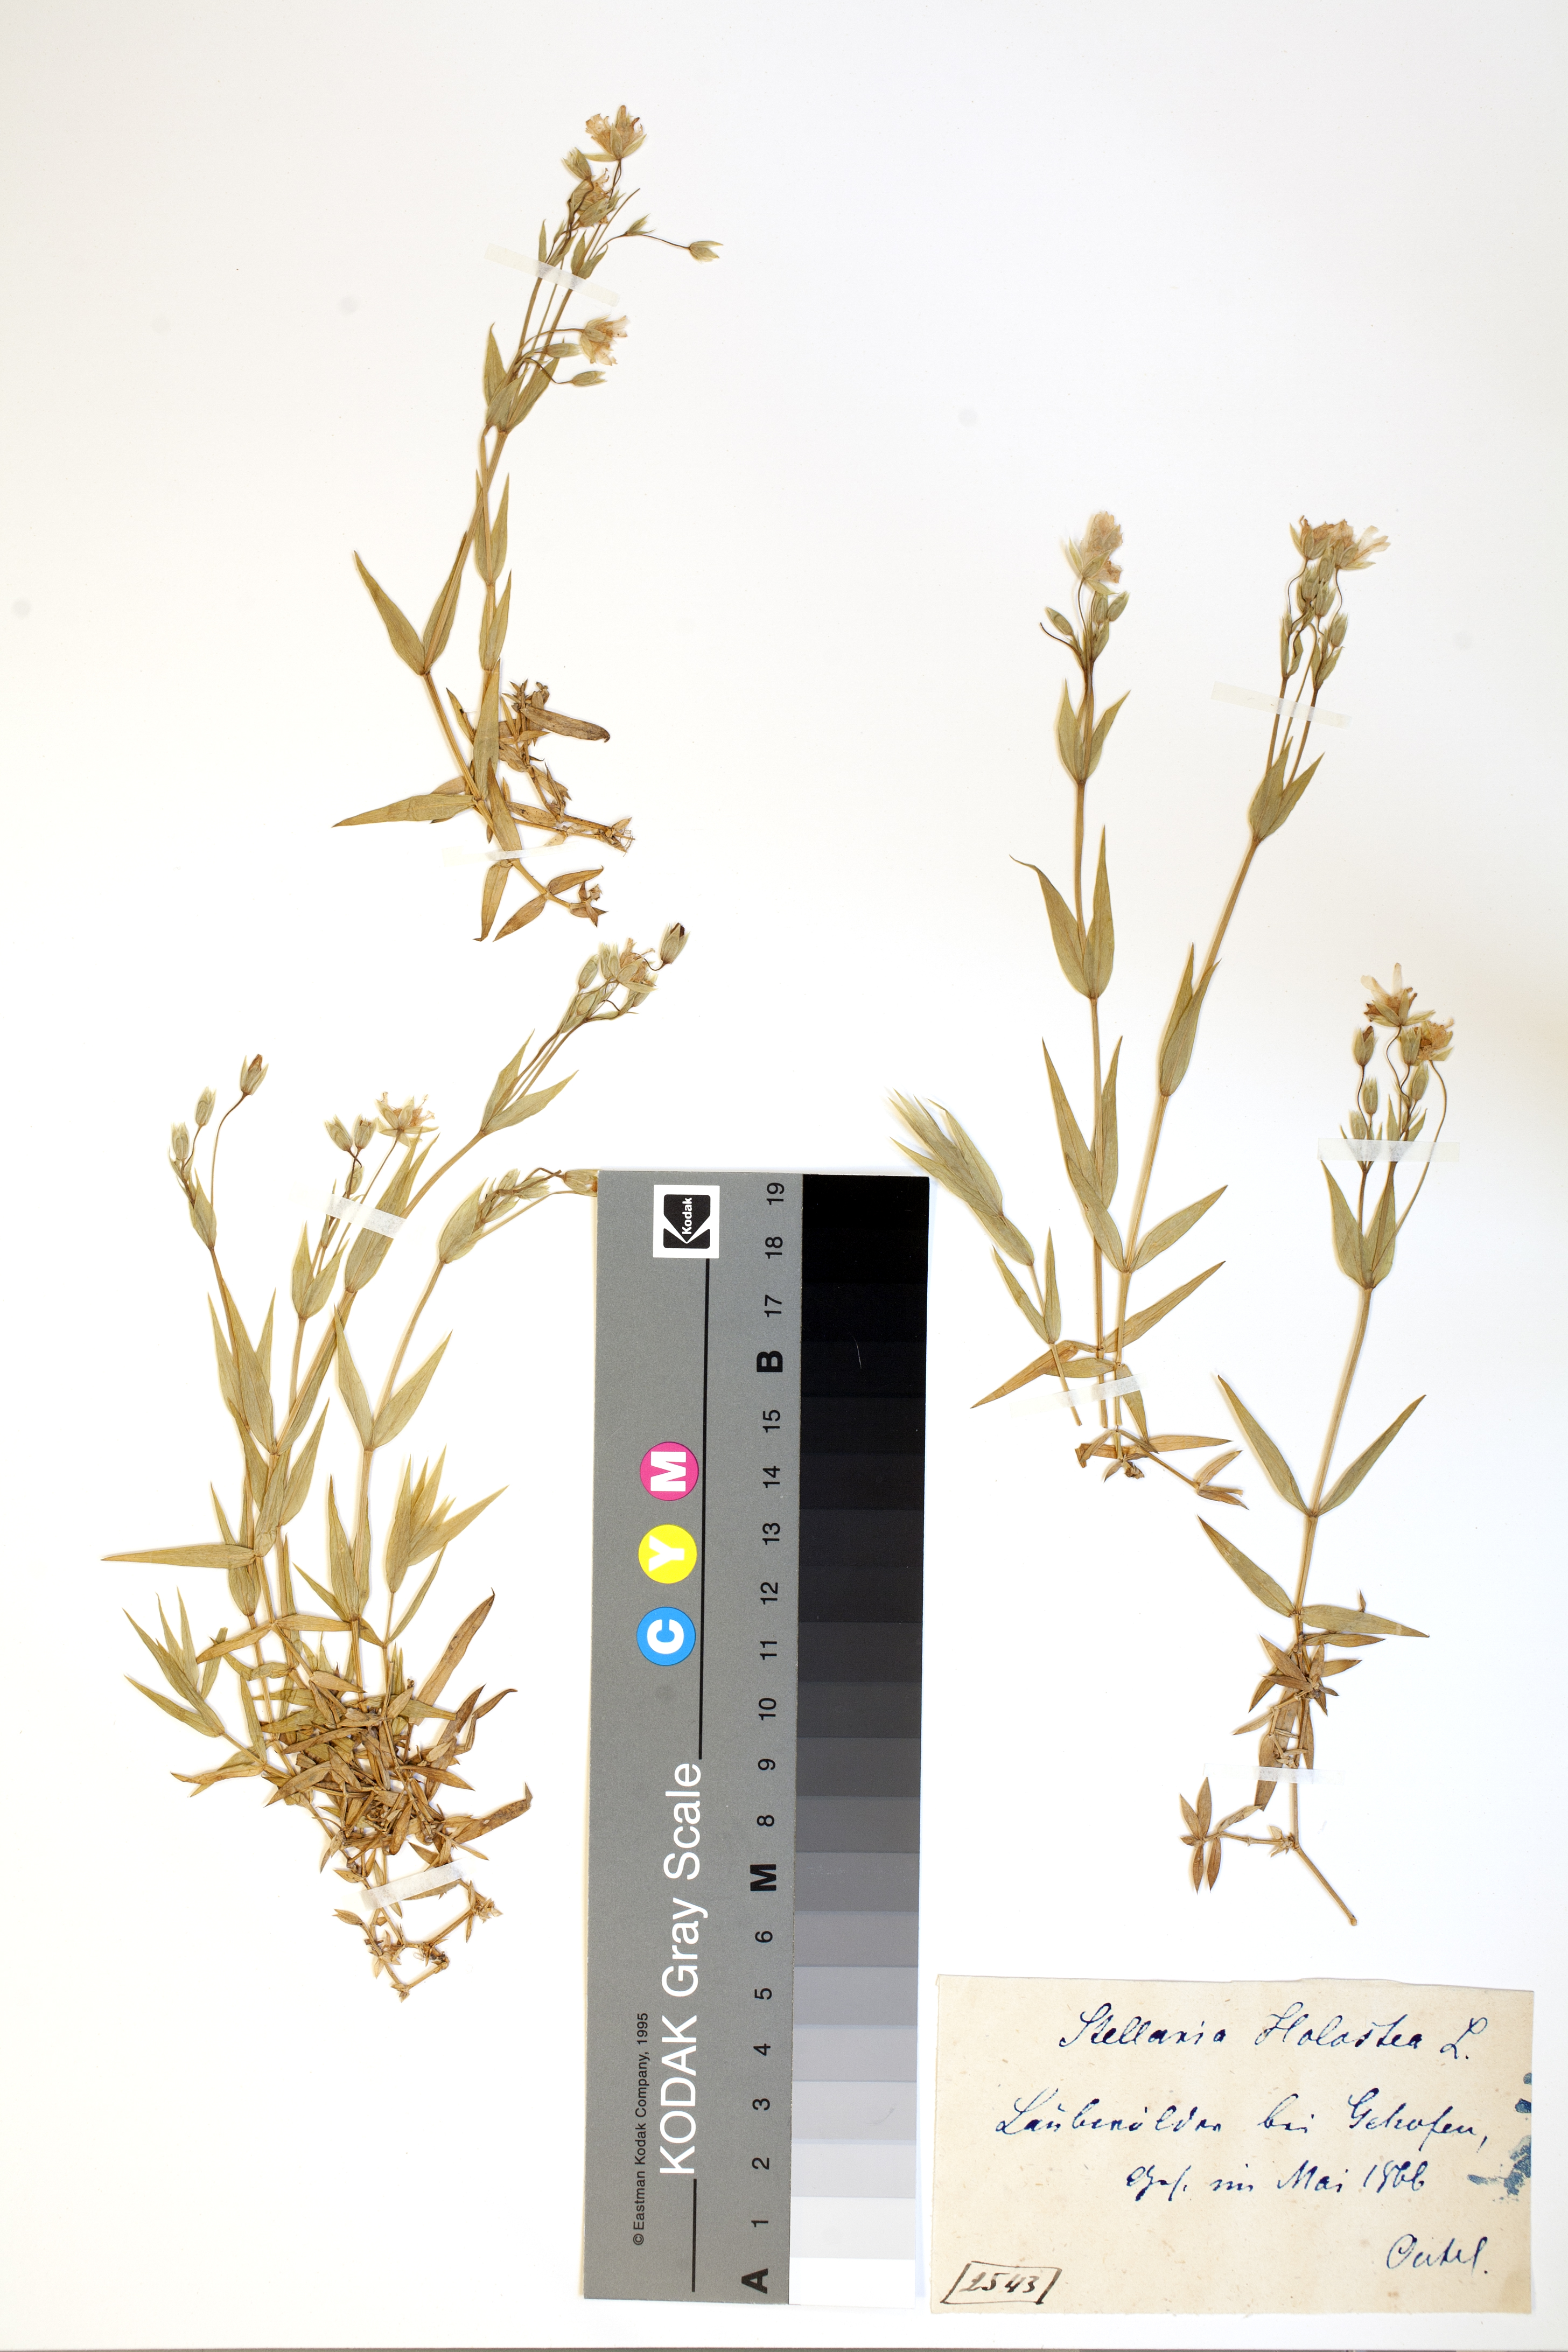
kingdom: Plantae
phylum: Tracheophyta
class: Magnoliopsida
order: Caryophyllales
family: Caryophyllaceae
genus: Rabelera
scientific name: Rabelera holostea
